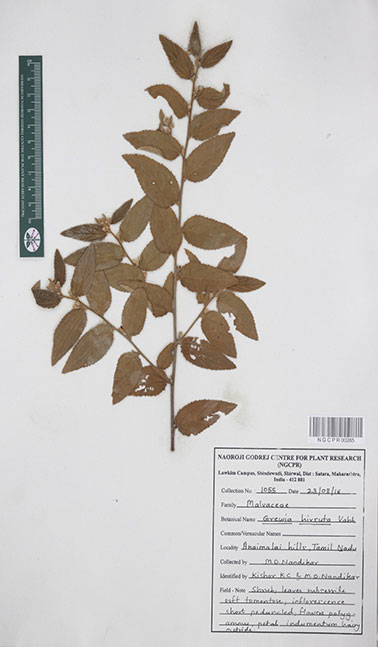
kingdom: Plantae
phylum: Tracheophyta
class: Magnoliopsida
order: Malvales
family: Malvaceae
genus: Grewia
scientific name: Grewia hirsuta
